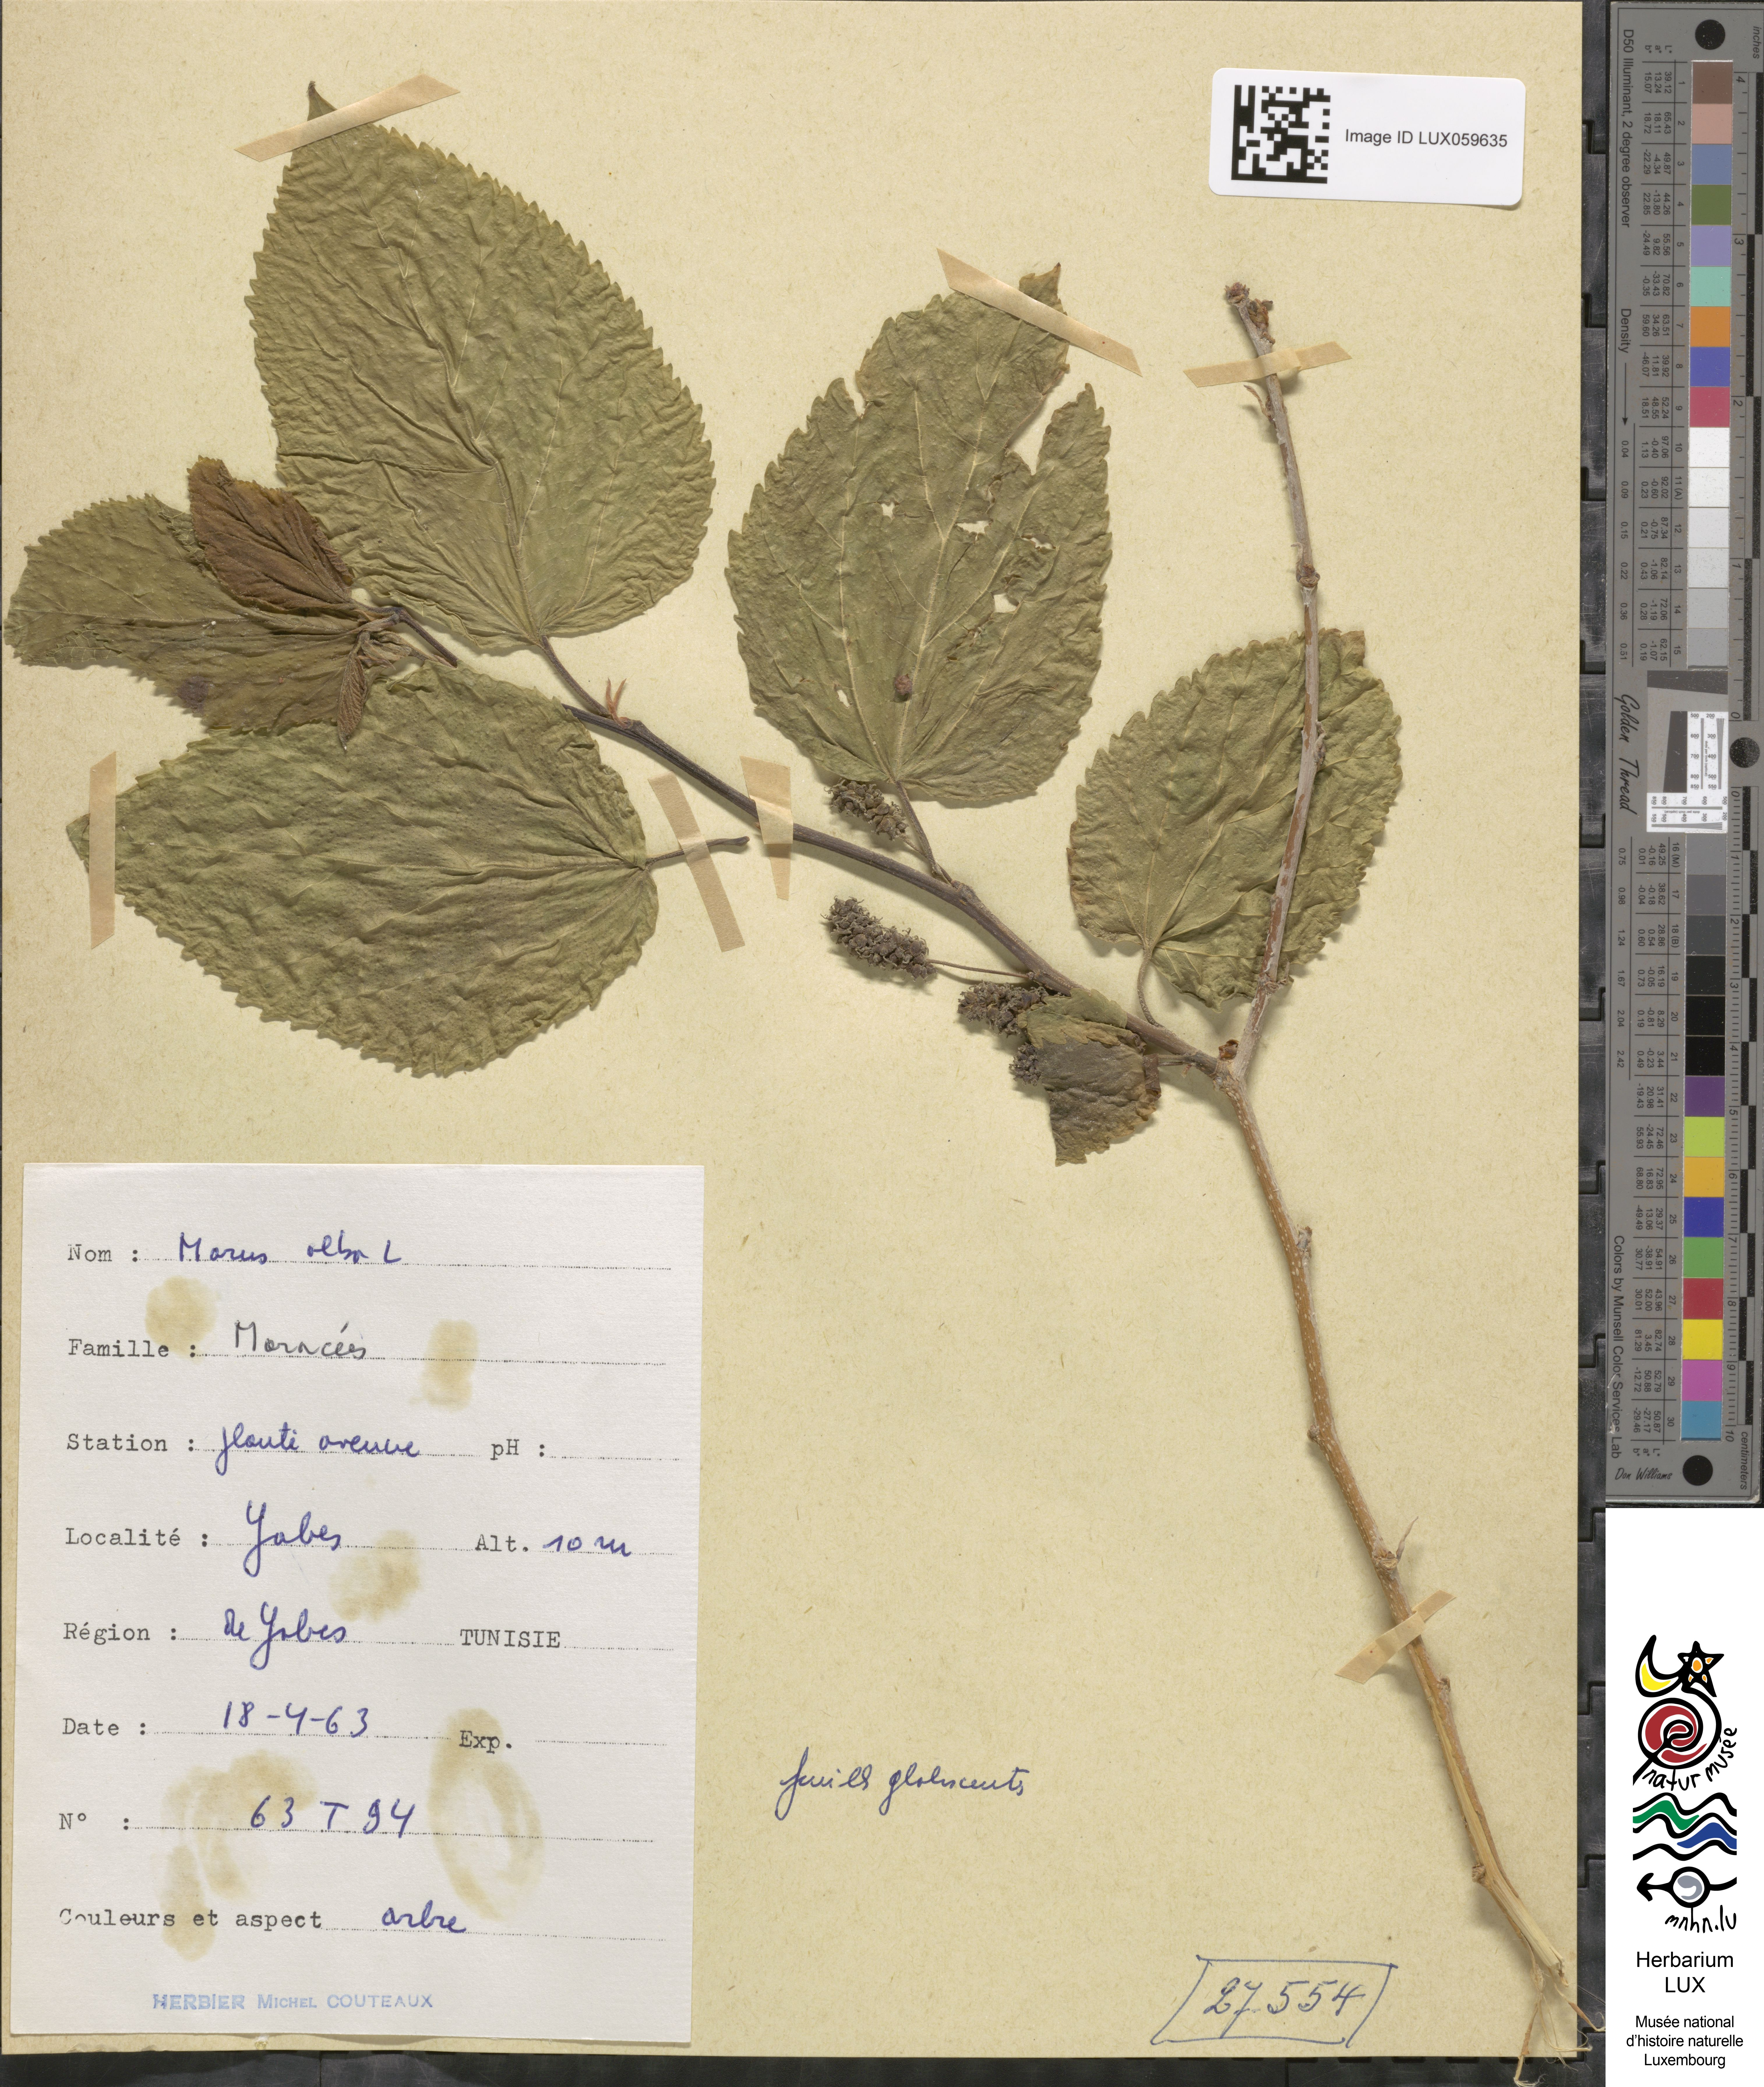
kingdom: Plantae
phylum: Tracheophyta
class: Magnoliopsida
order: Rosales
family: Moraceae
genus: Morus
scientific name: Morus alba
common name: White mulberry
